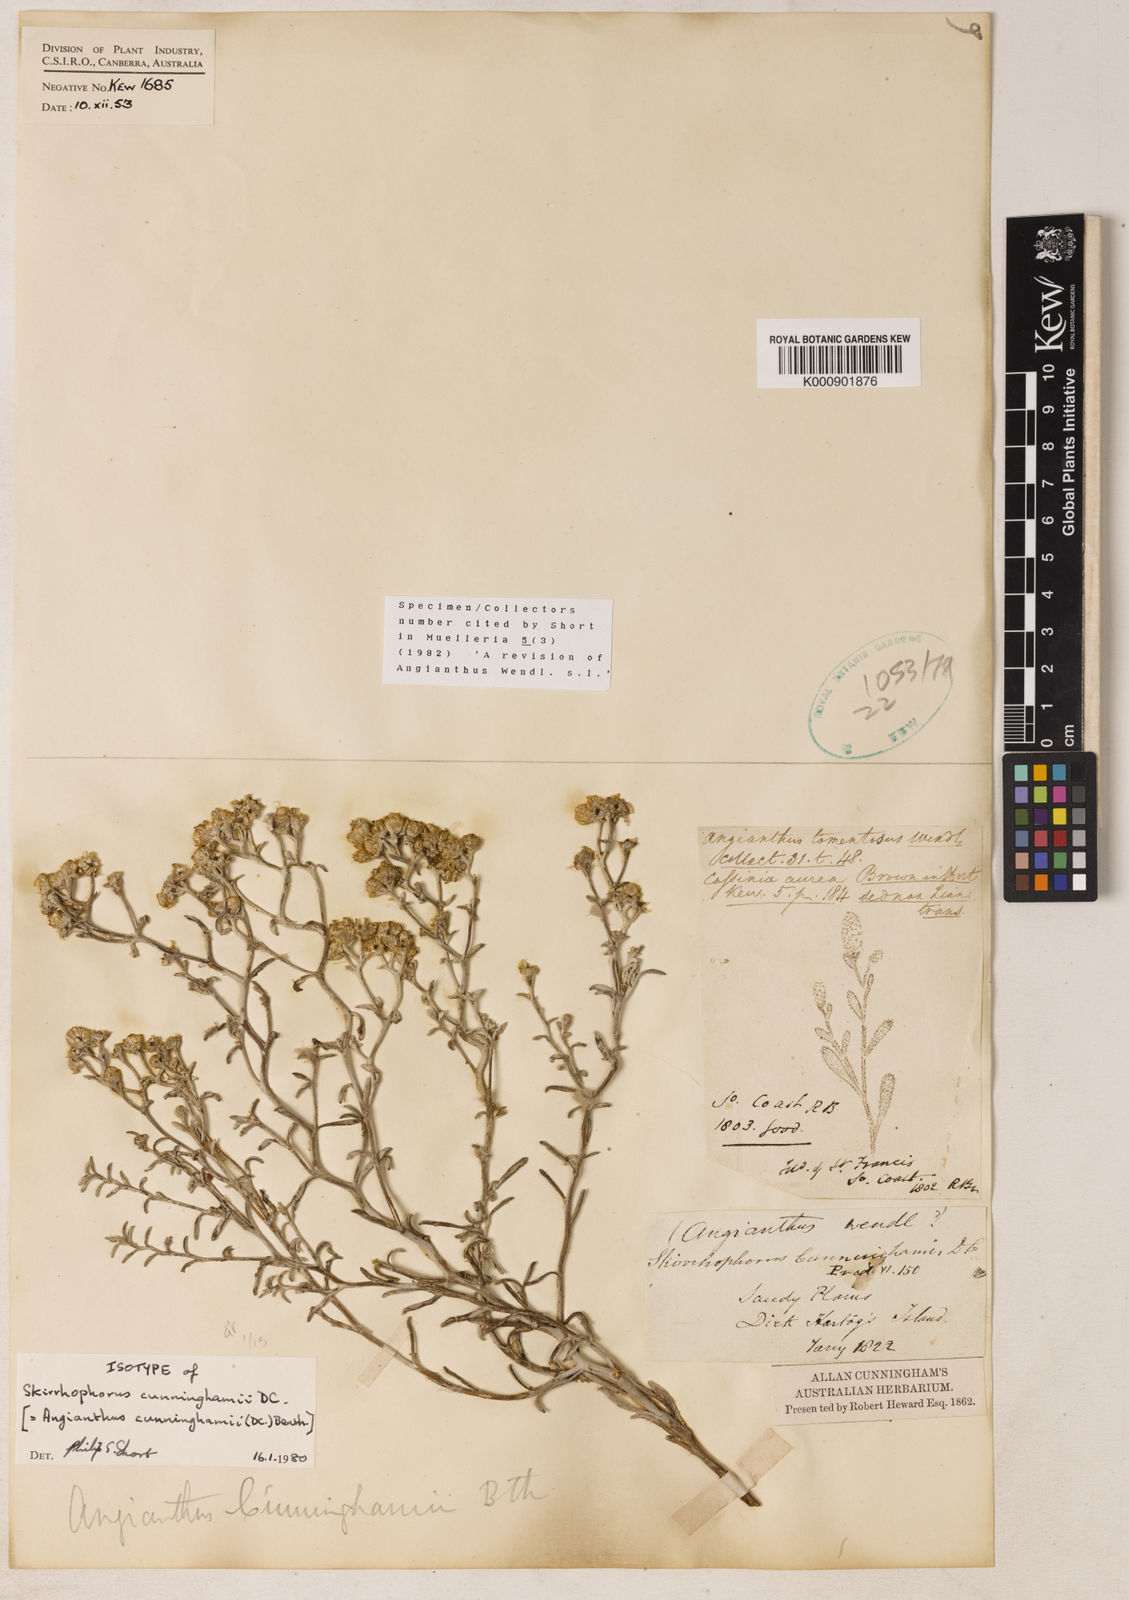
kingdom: Plantae
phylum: Tracheophyta
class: Magnoliopsida
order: Asterales
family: Asteraceae
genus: Angianthus
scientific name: Angianthus cunninghamii
